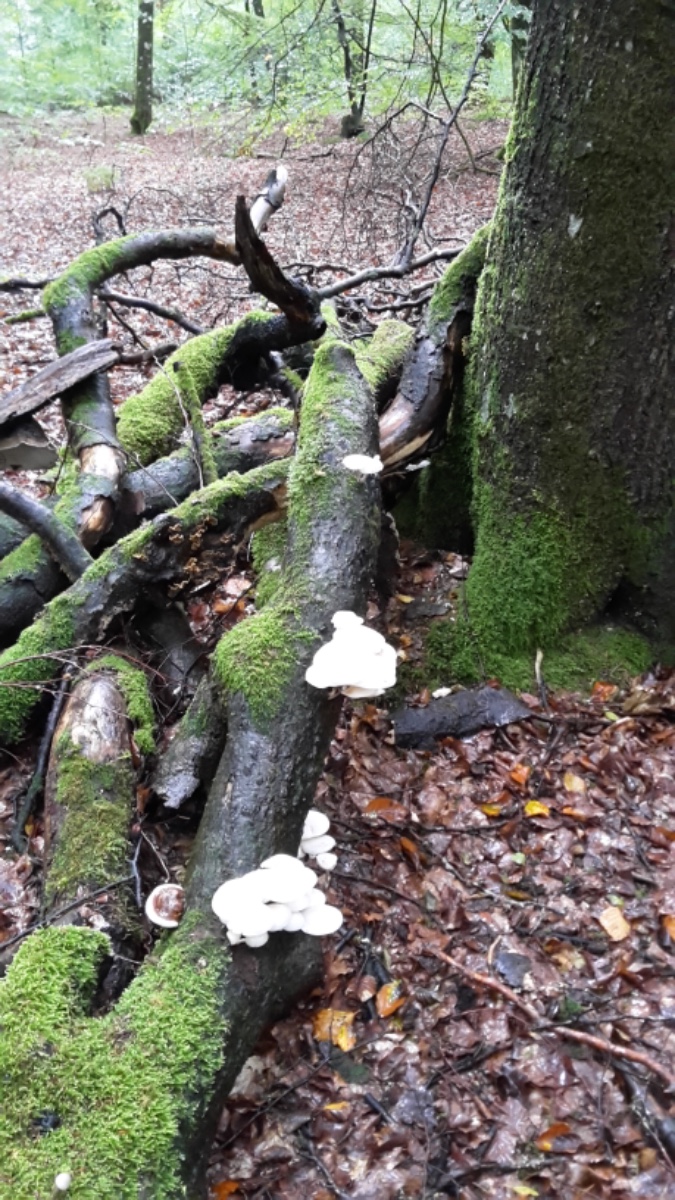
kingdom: Fungi
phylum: Basidiomycota
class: Agaricomycetes
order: Agaricales
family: Physalacriaceae
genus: Mucidula
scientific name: Mucidula mucida
